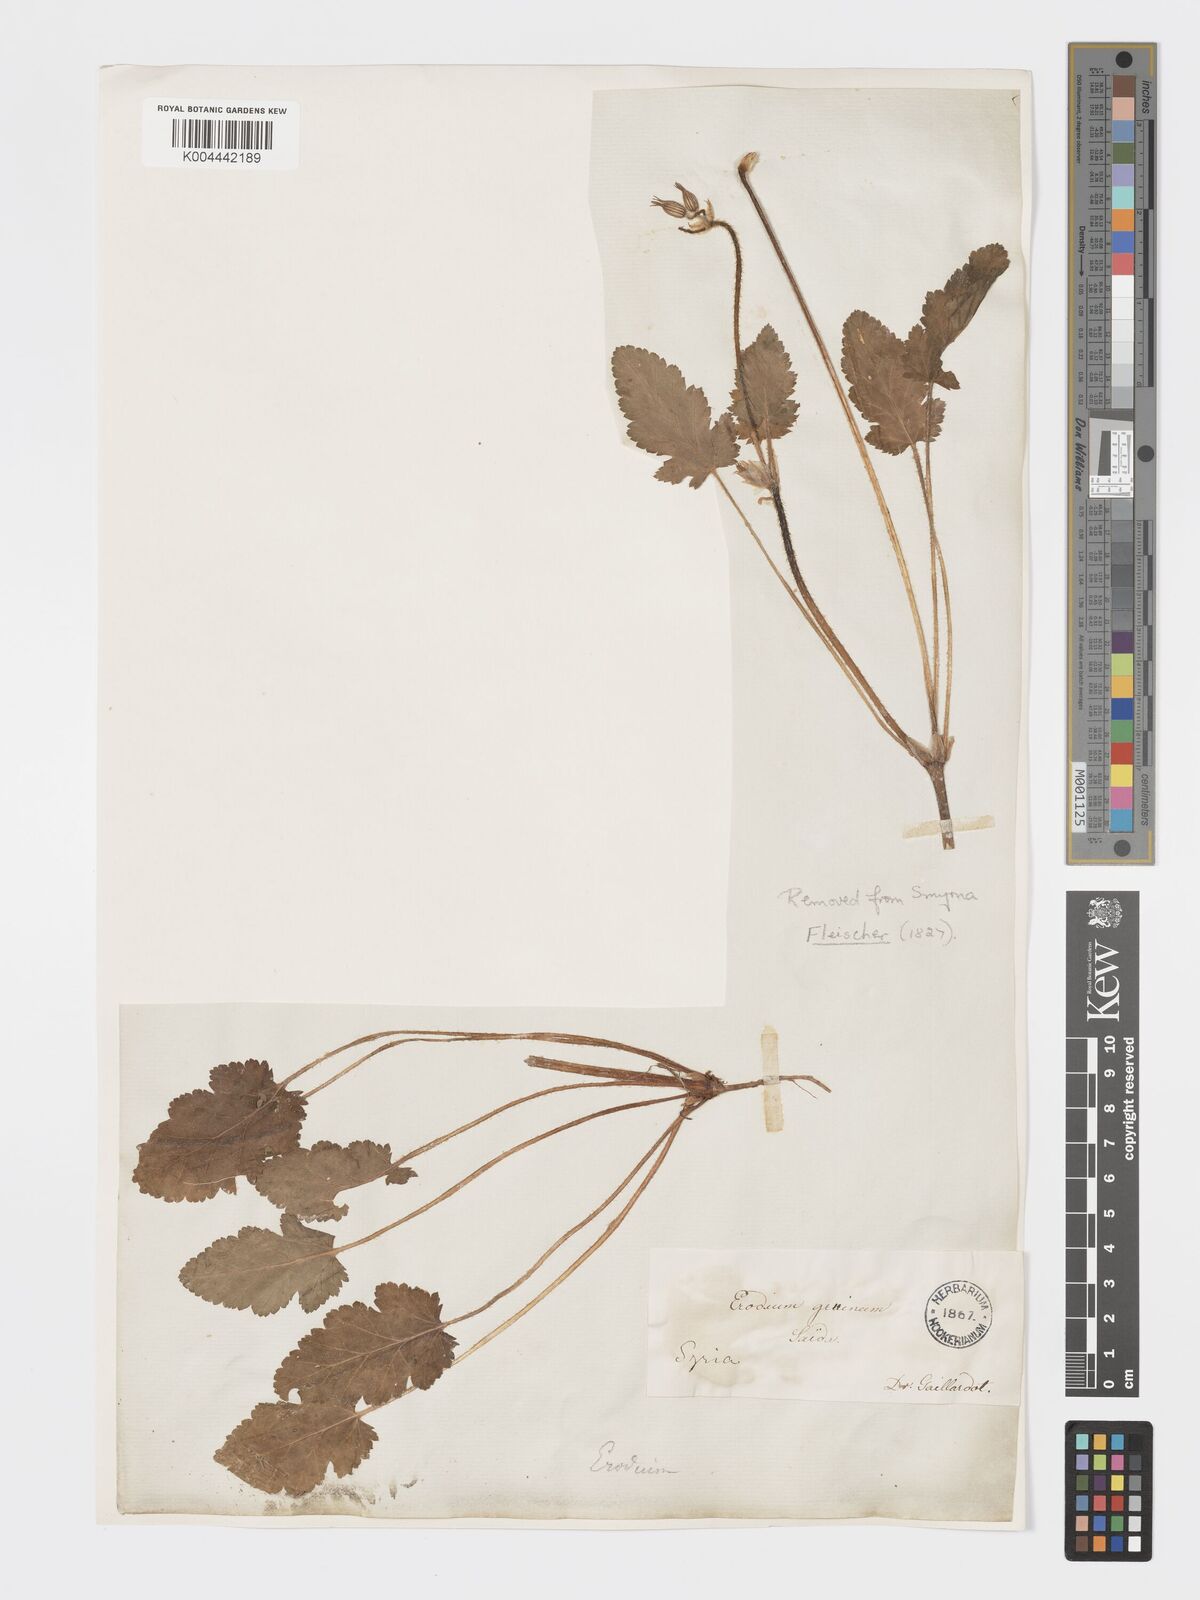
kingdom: Plantae
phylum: Tracheophyta
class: Magnoliopsida
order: Geraniales
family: Geraniaceae
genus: Erodium
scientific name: Erodium gruinum
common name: Iranian stork's bill
